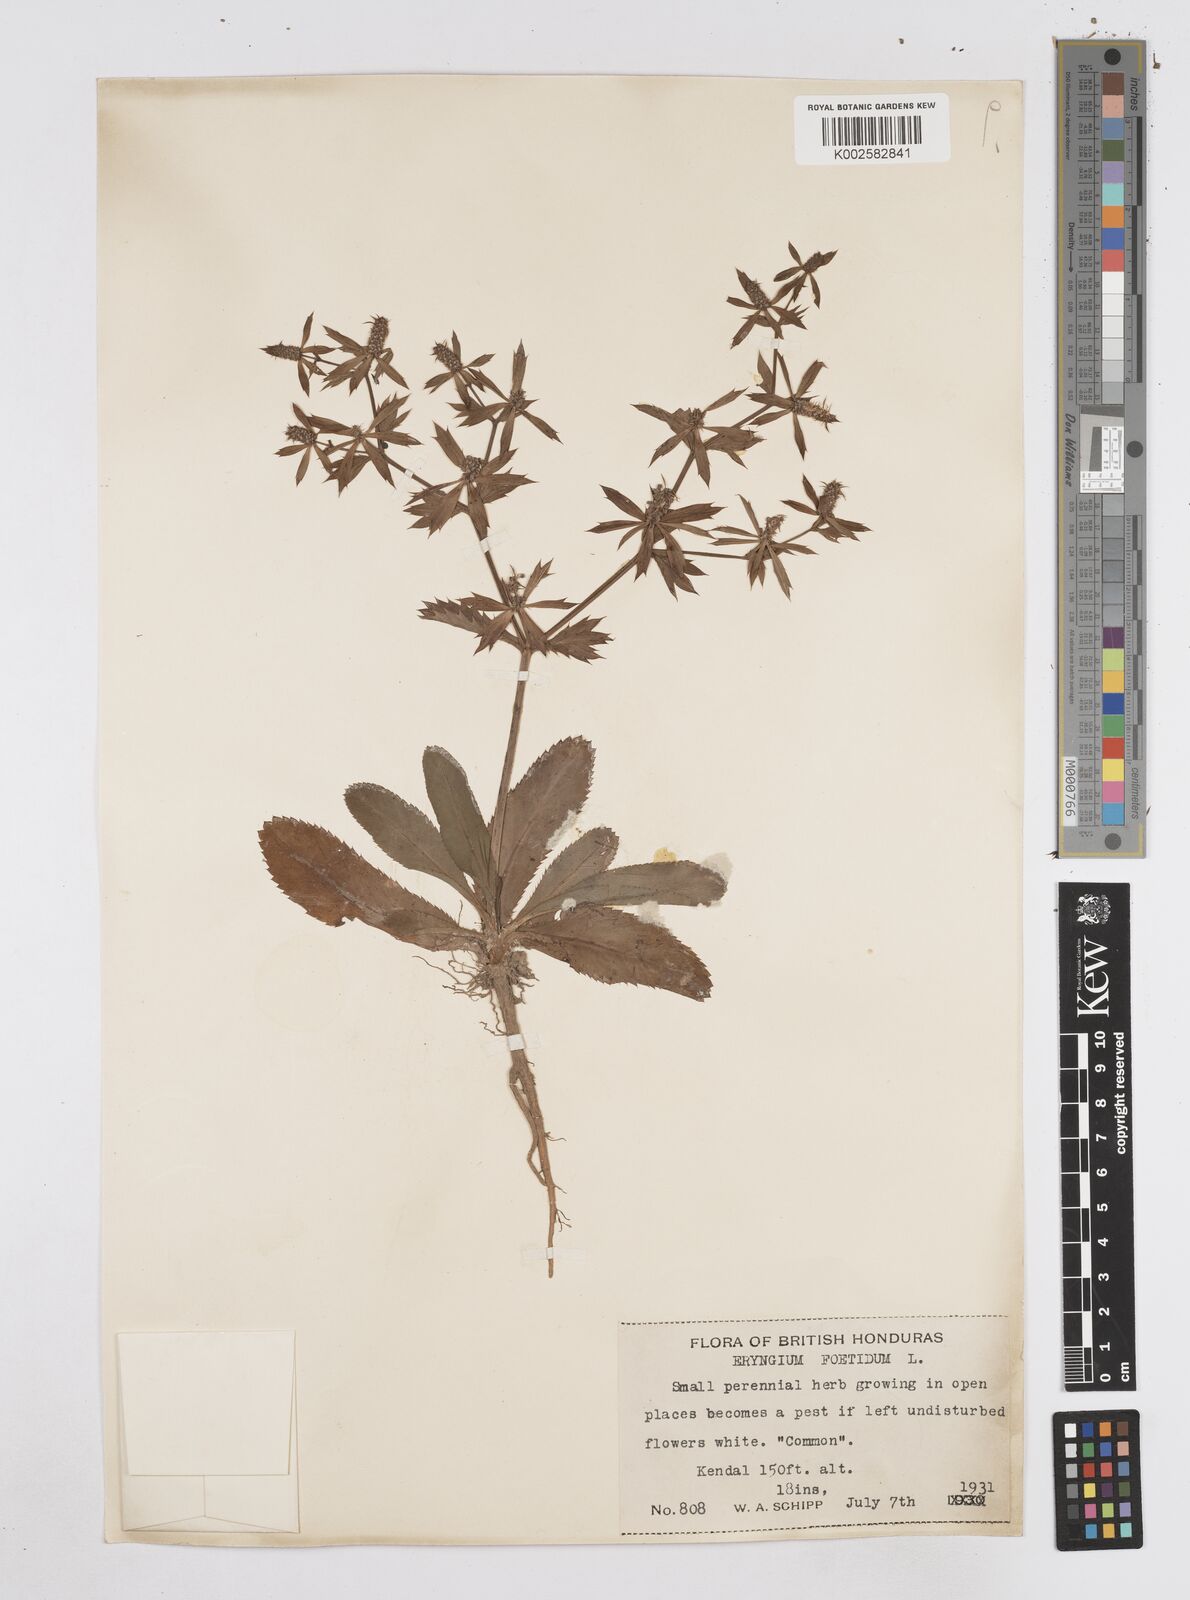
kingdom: Plantae
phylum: Tracheophyta
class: Magnoliopsida
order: Apiales
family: Apiaceae
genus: Eryngium
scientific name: Eryngium foetidum
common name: Fitweed
